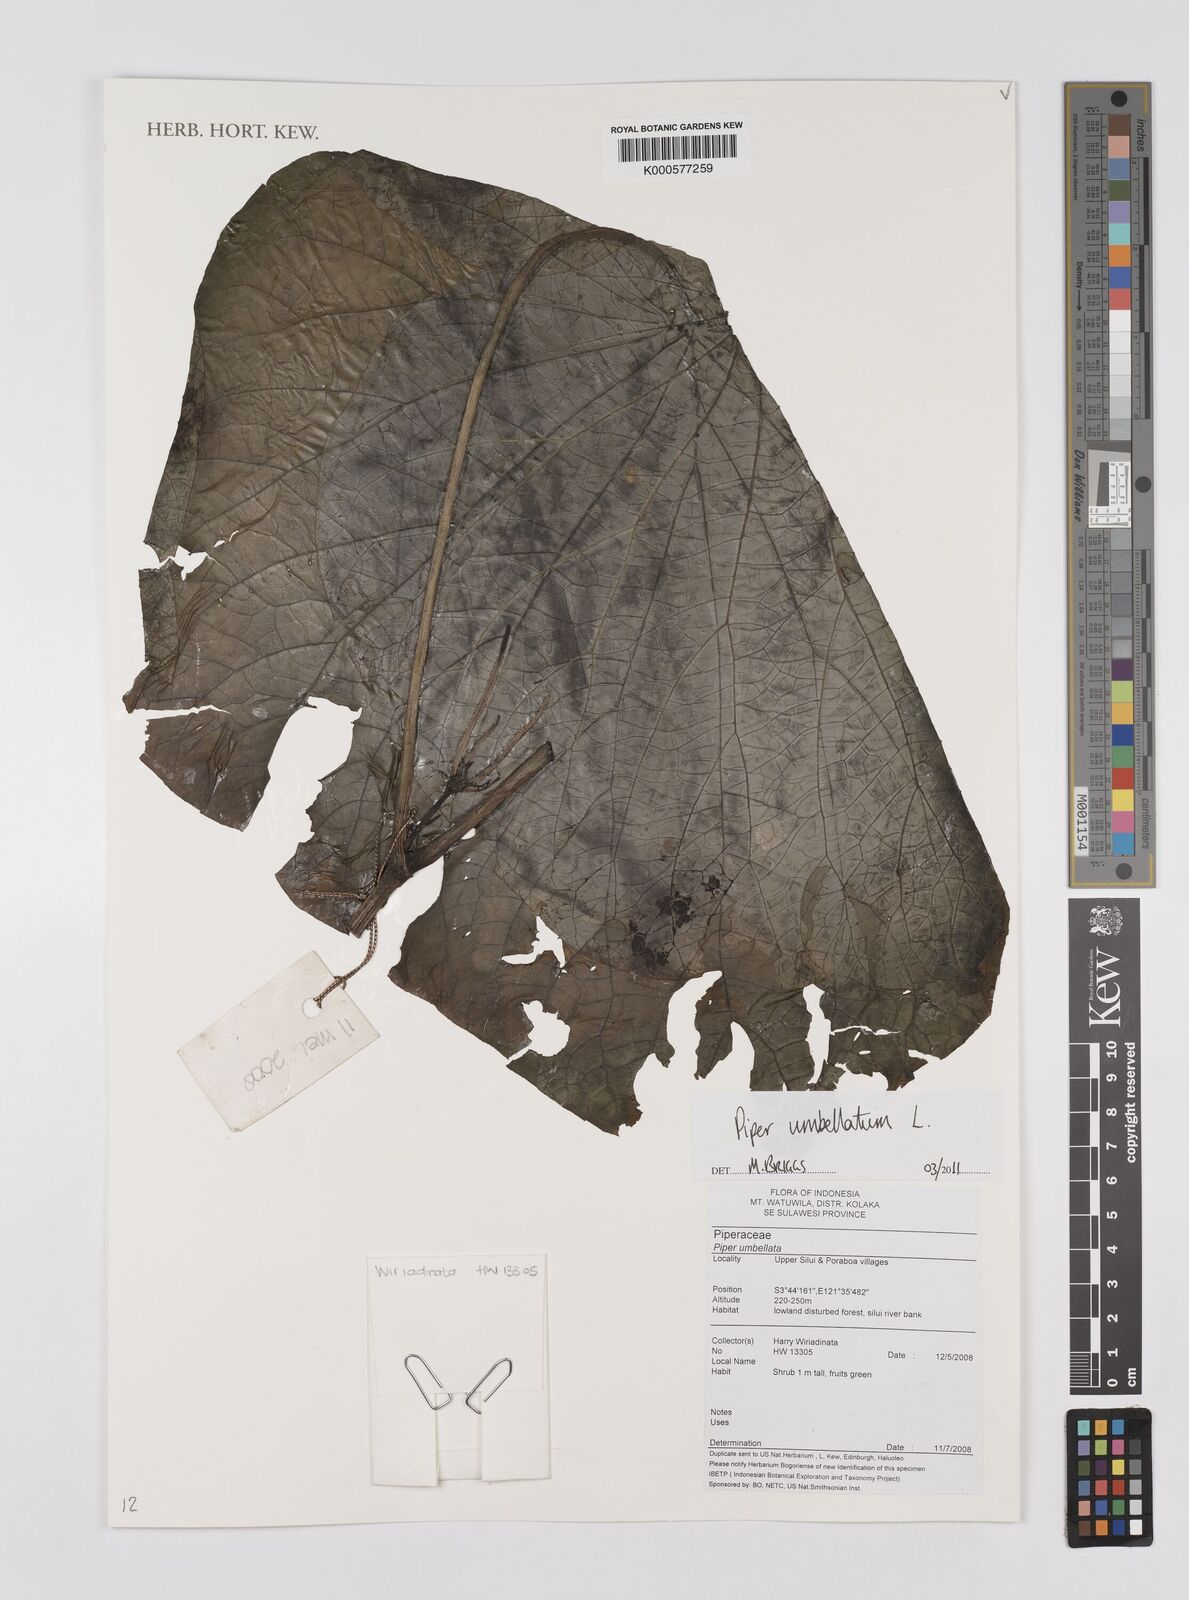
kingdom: Plantae
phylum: Tracheophyta
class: Magnoliopsida
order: Piperales
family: Piperaceae
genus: Piper
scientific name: Piper umbellatum
